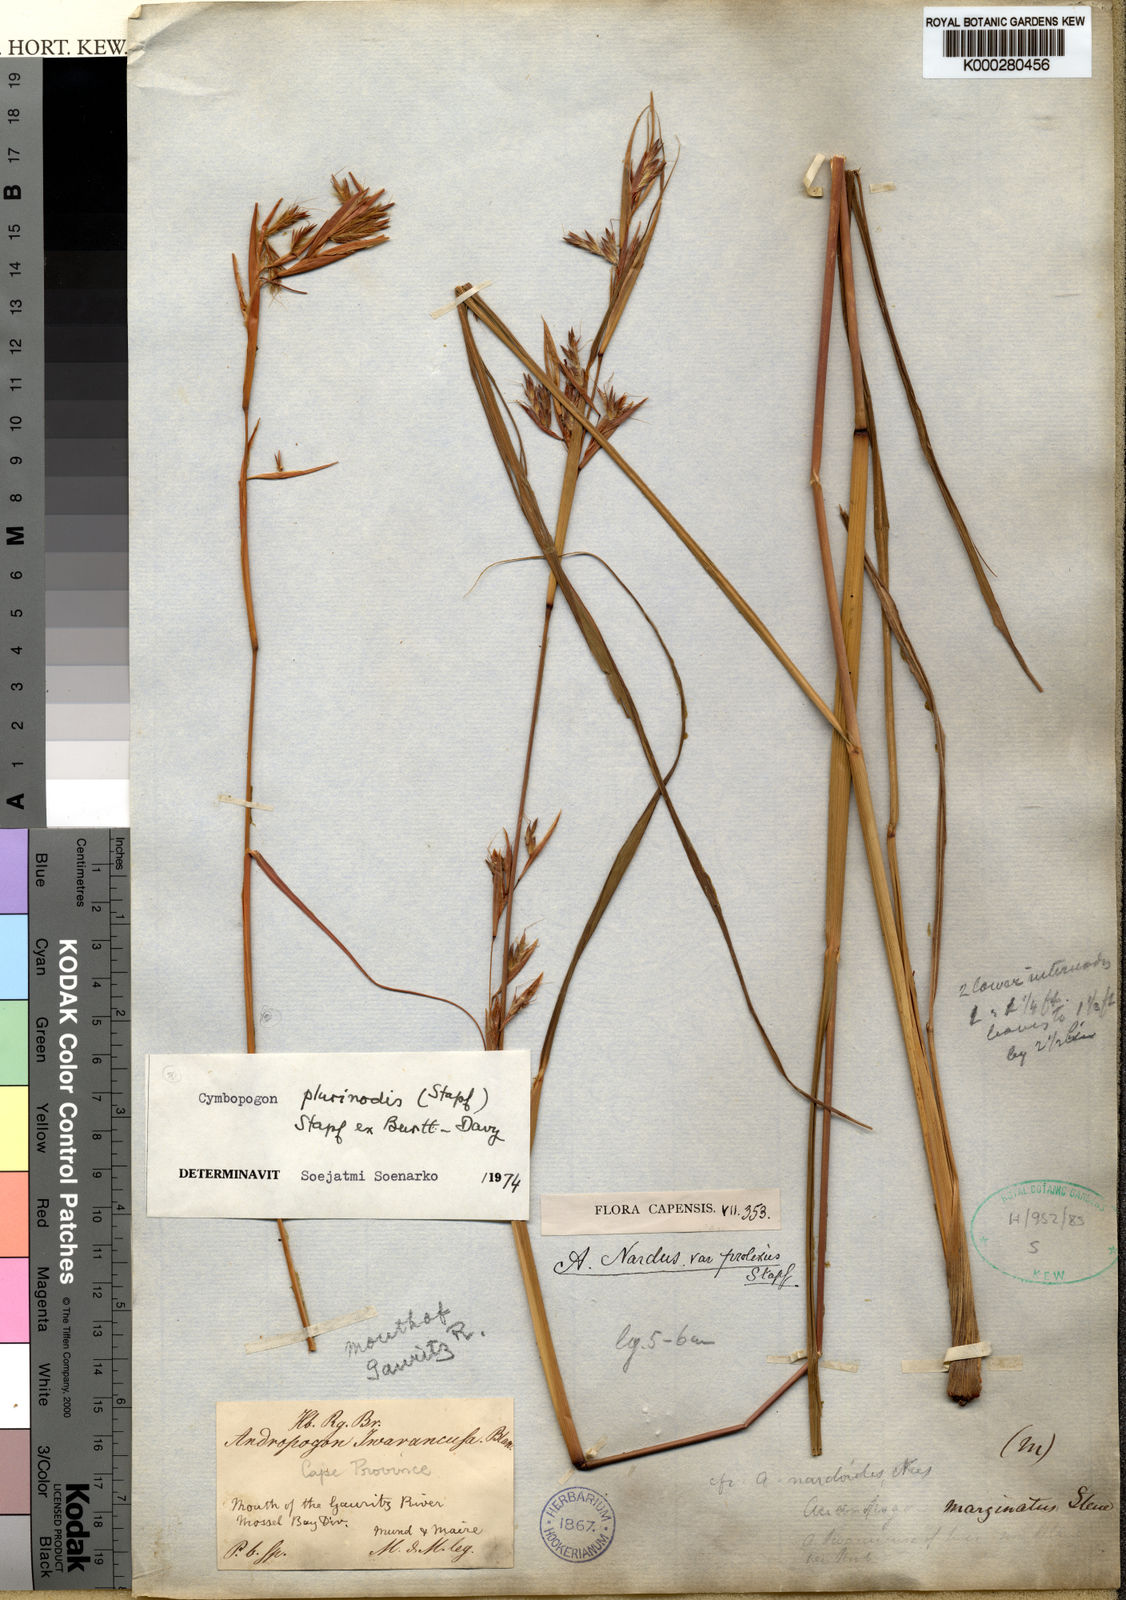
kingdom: Plantae
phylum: Tracheophyta
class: Liliopsida
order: Poales
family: Poaceae
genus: Cymbopogon
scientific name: Cymbopogon nardus
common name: Giant turpentine grass
